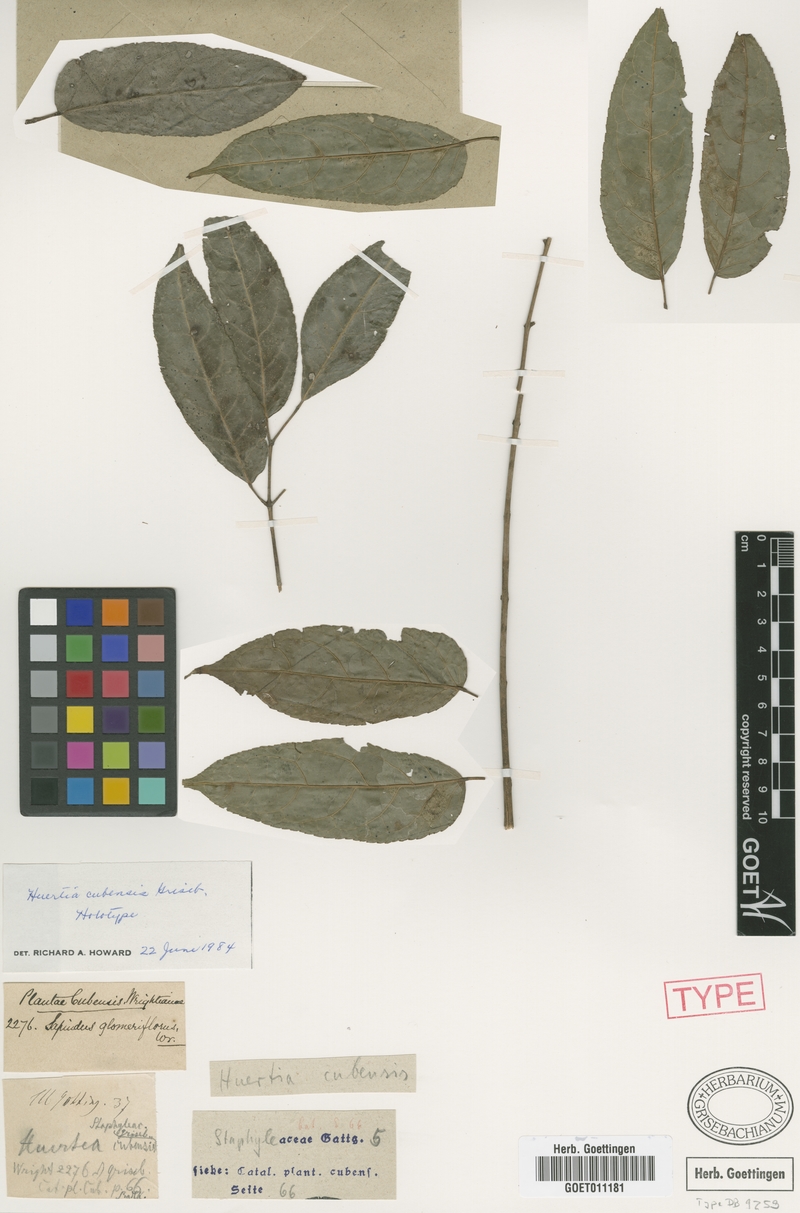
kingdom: Plantae
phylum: Tracheophyta
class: Magnoliopsida
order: Huerteales
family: Tapisciaceae
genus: Huertea
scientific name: Huertea cubensis
